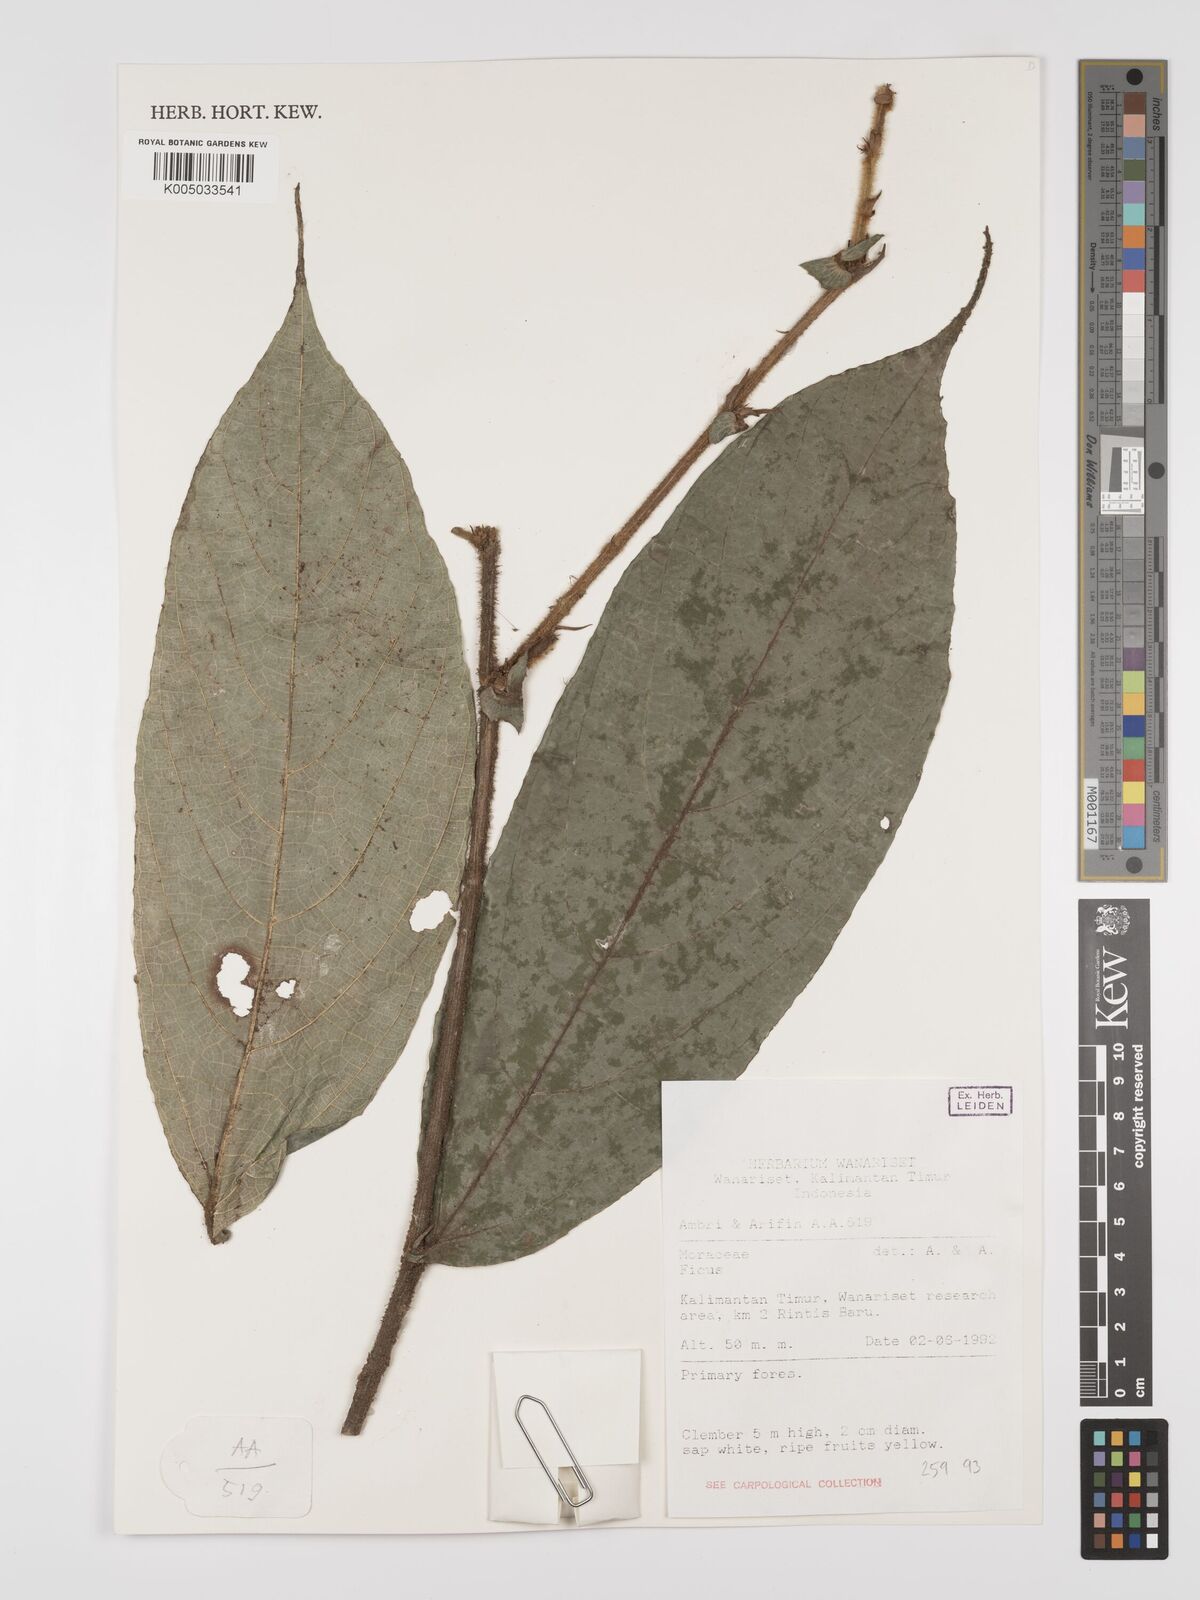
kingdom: Plantae
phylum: Tracheophyta
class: Magnoliopsida
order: Rosales
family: Moraceae
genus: Ficus
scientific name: Ficus
